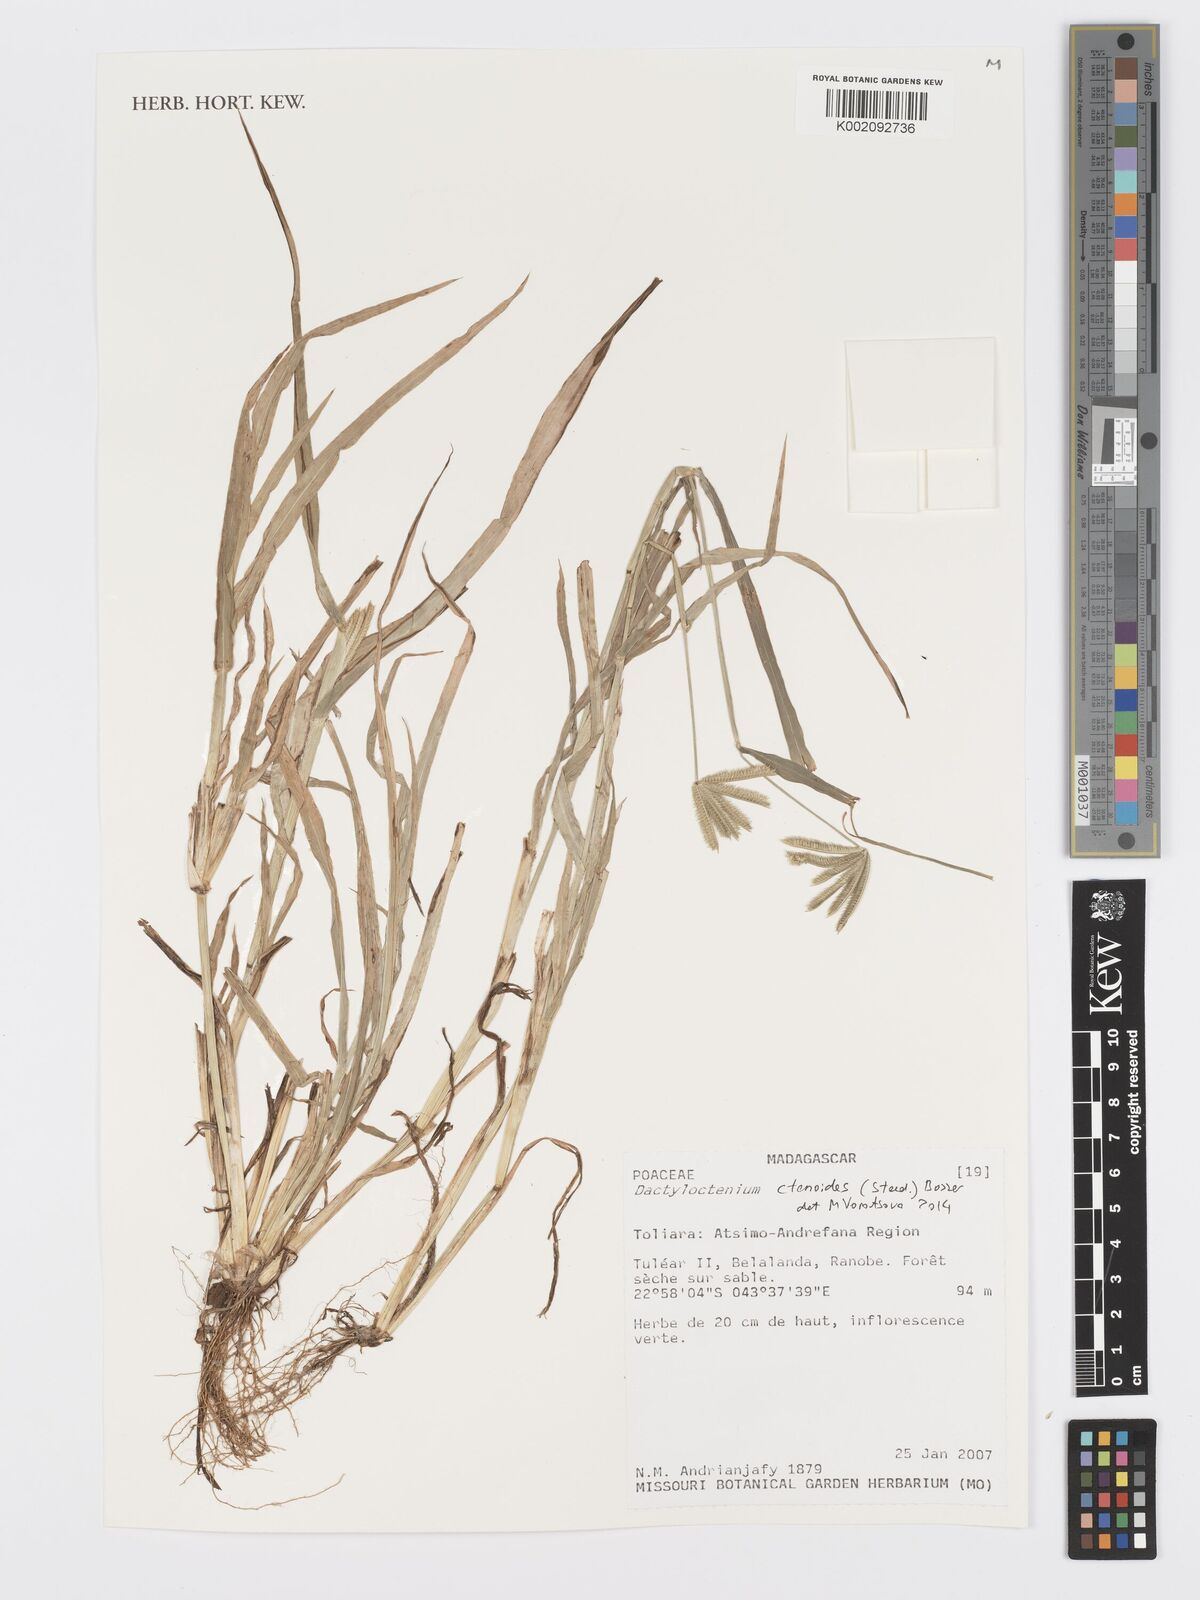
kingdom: Plantae
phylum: Tracheophyta
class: Liliopsida
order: Poales
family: Poaceae
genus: Dactyloctenium
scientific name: Dactyloctenium ctenoides
